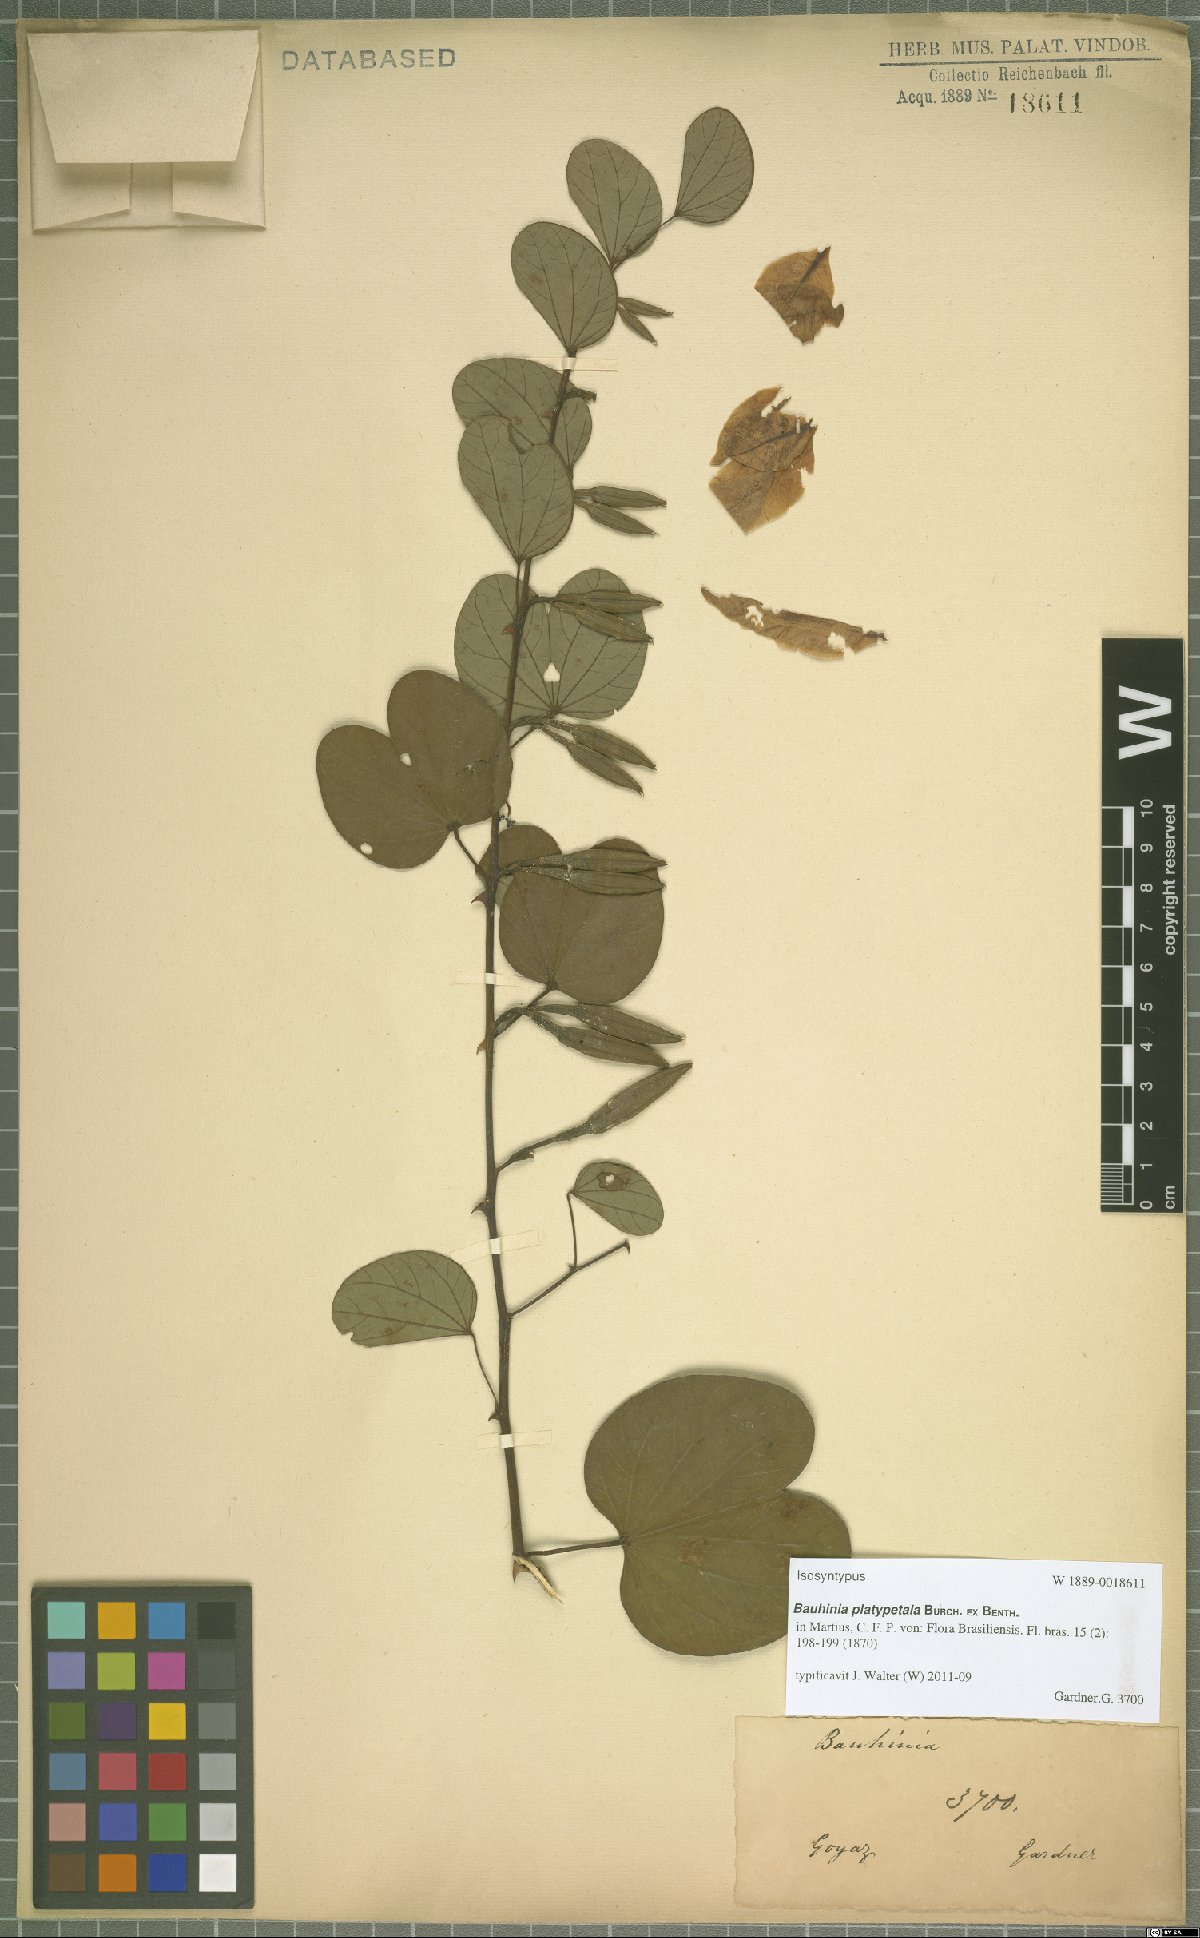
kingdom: Plantae
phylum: Tracheophyta
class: Magnoliopsida
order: Fabales
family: Fabaceae
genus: Bauhinia
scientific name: Bauhinia platypetala
